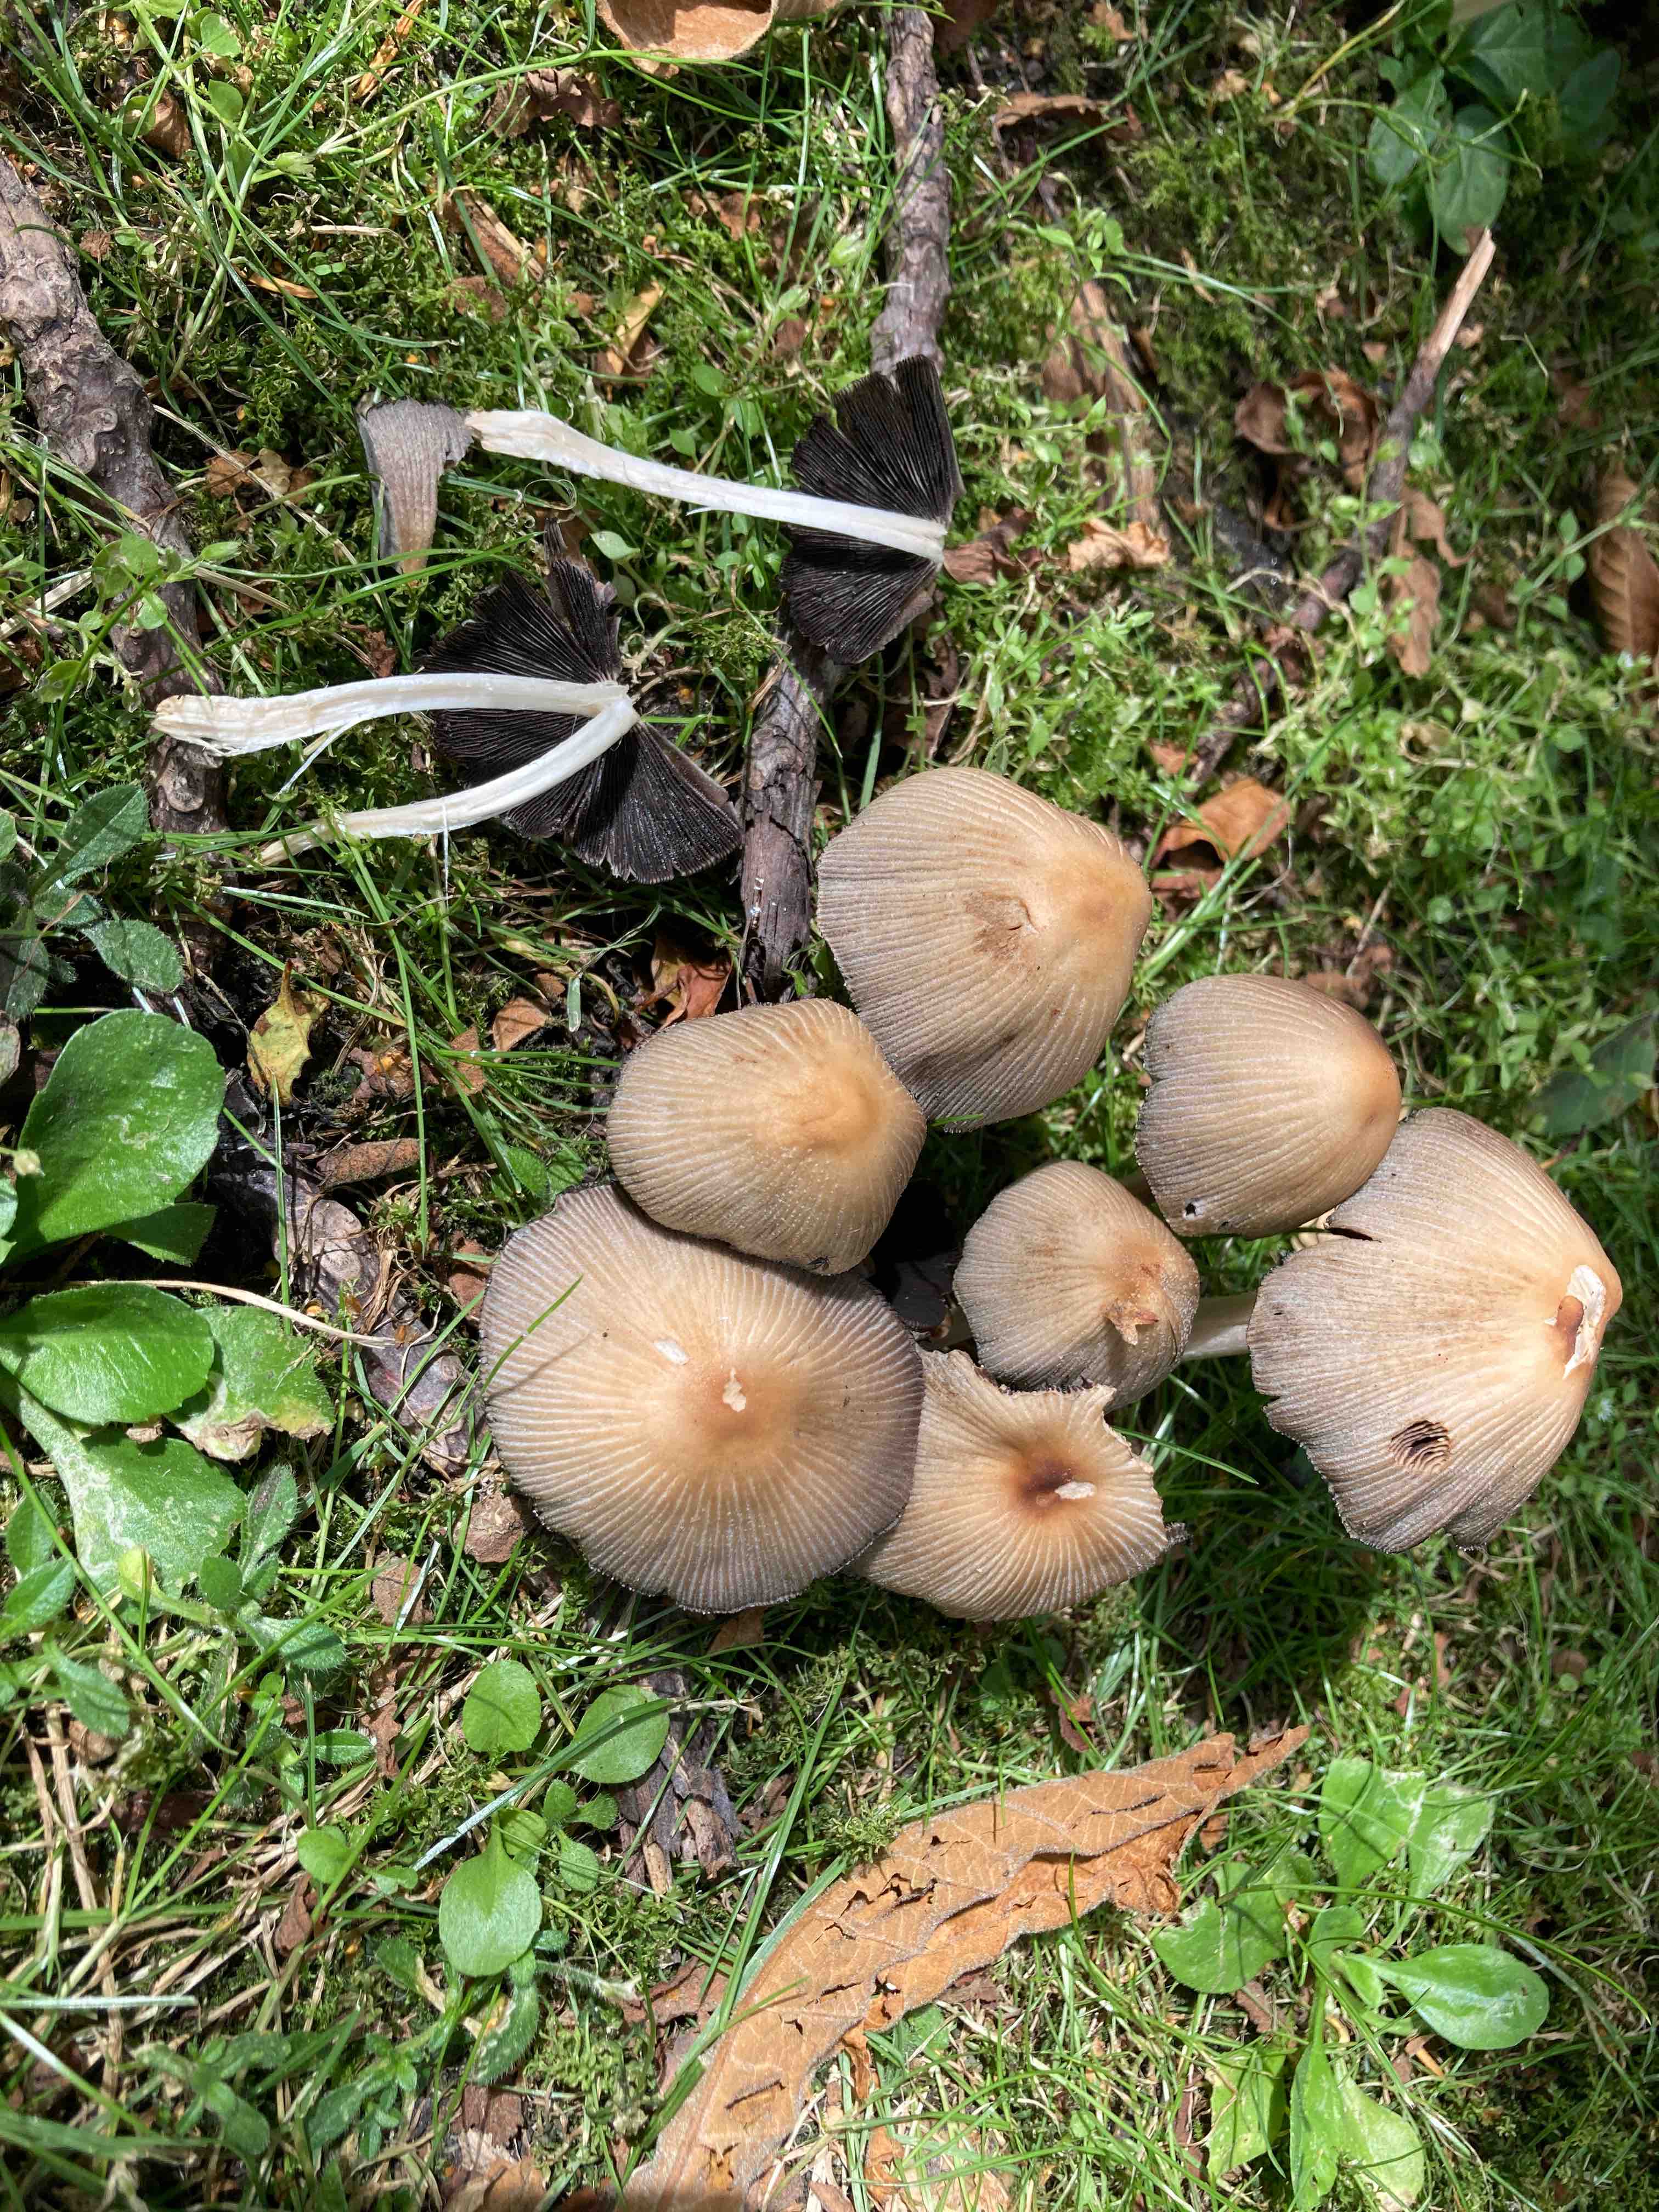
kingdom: Fungi
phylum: Basidiomycota
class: Agaricomycetes
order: Agaricales
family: Psathyrellaceae
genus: Coprinellus
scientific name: Coprinellus micaceus
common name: glimmer-blækhat
